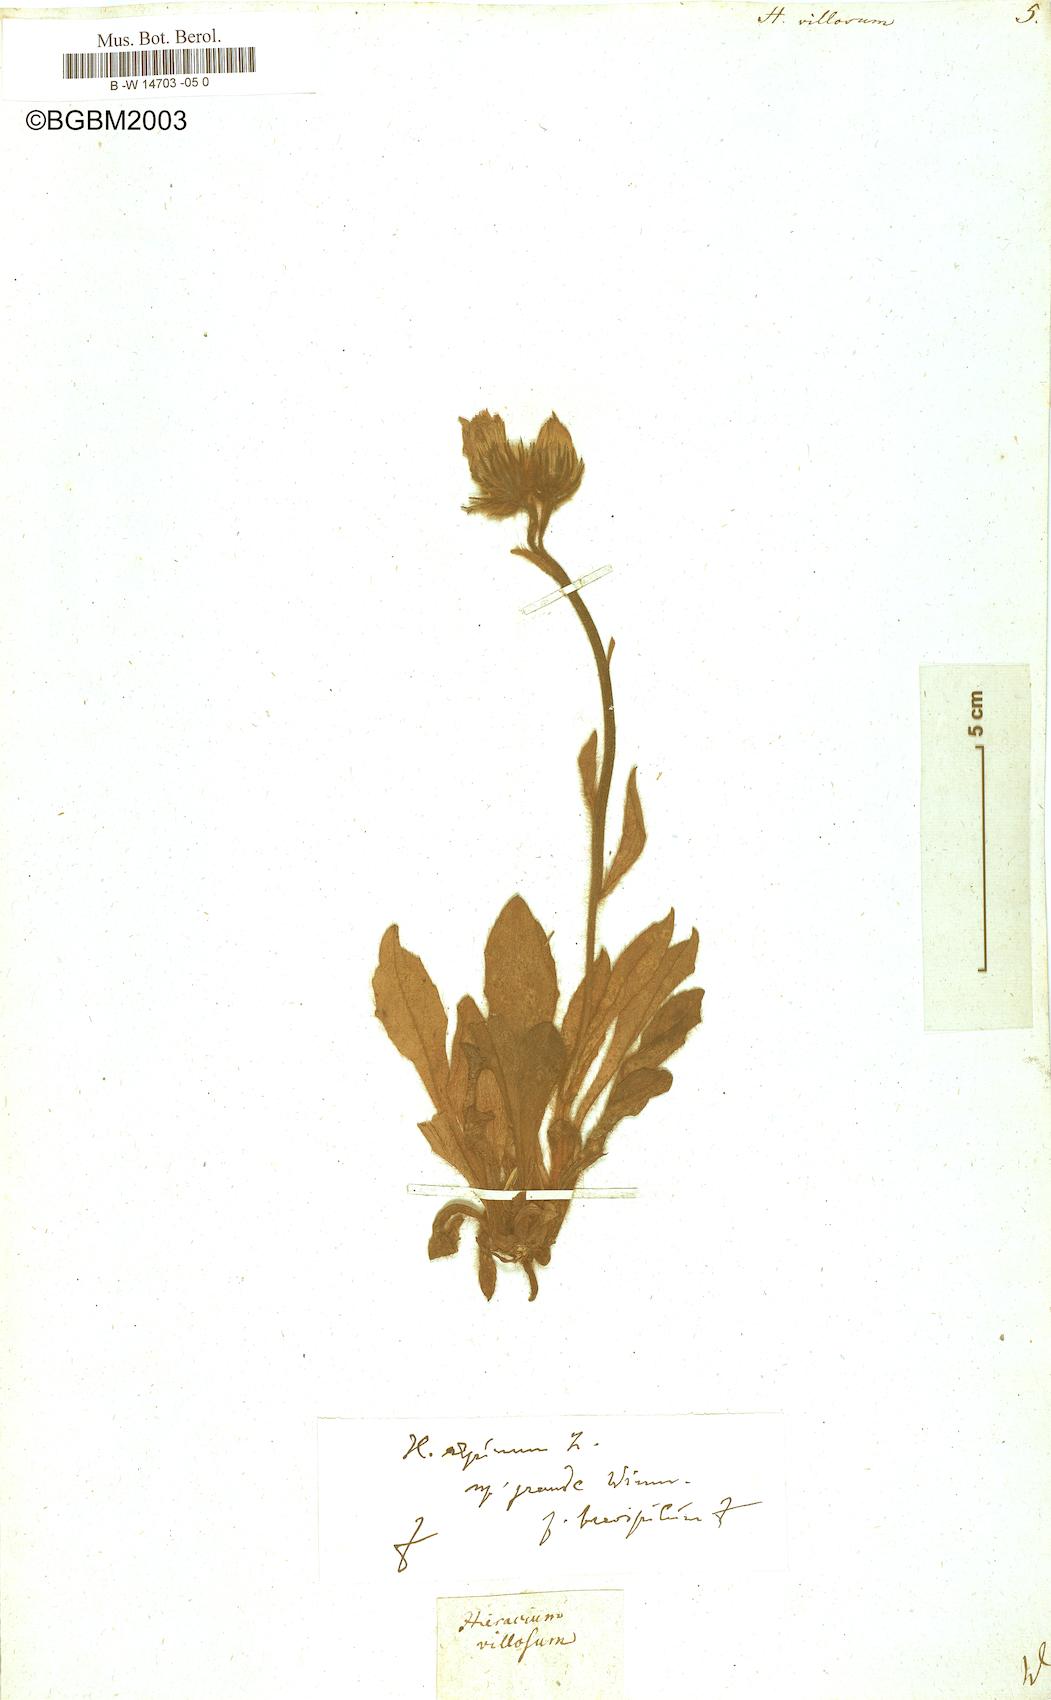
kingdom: Plantae
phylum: Tracheophyta
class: Magnoliopsida
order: Asterales
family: Asteraceae
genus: Hieracium
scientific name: Hieracium villosum
